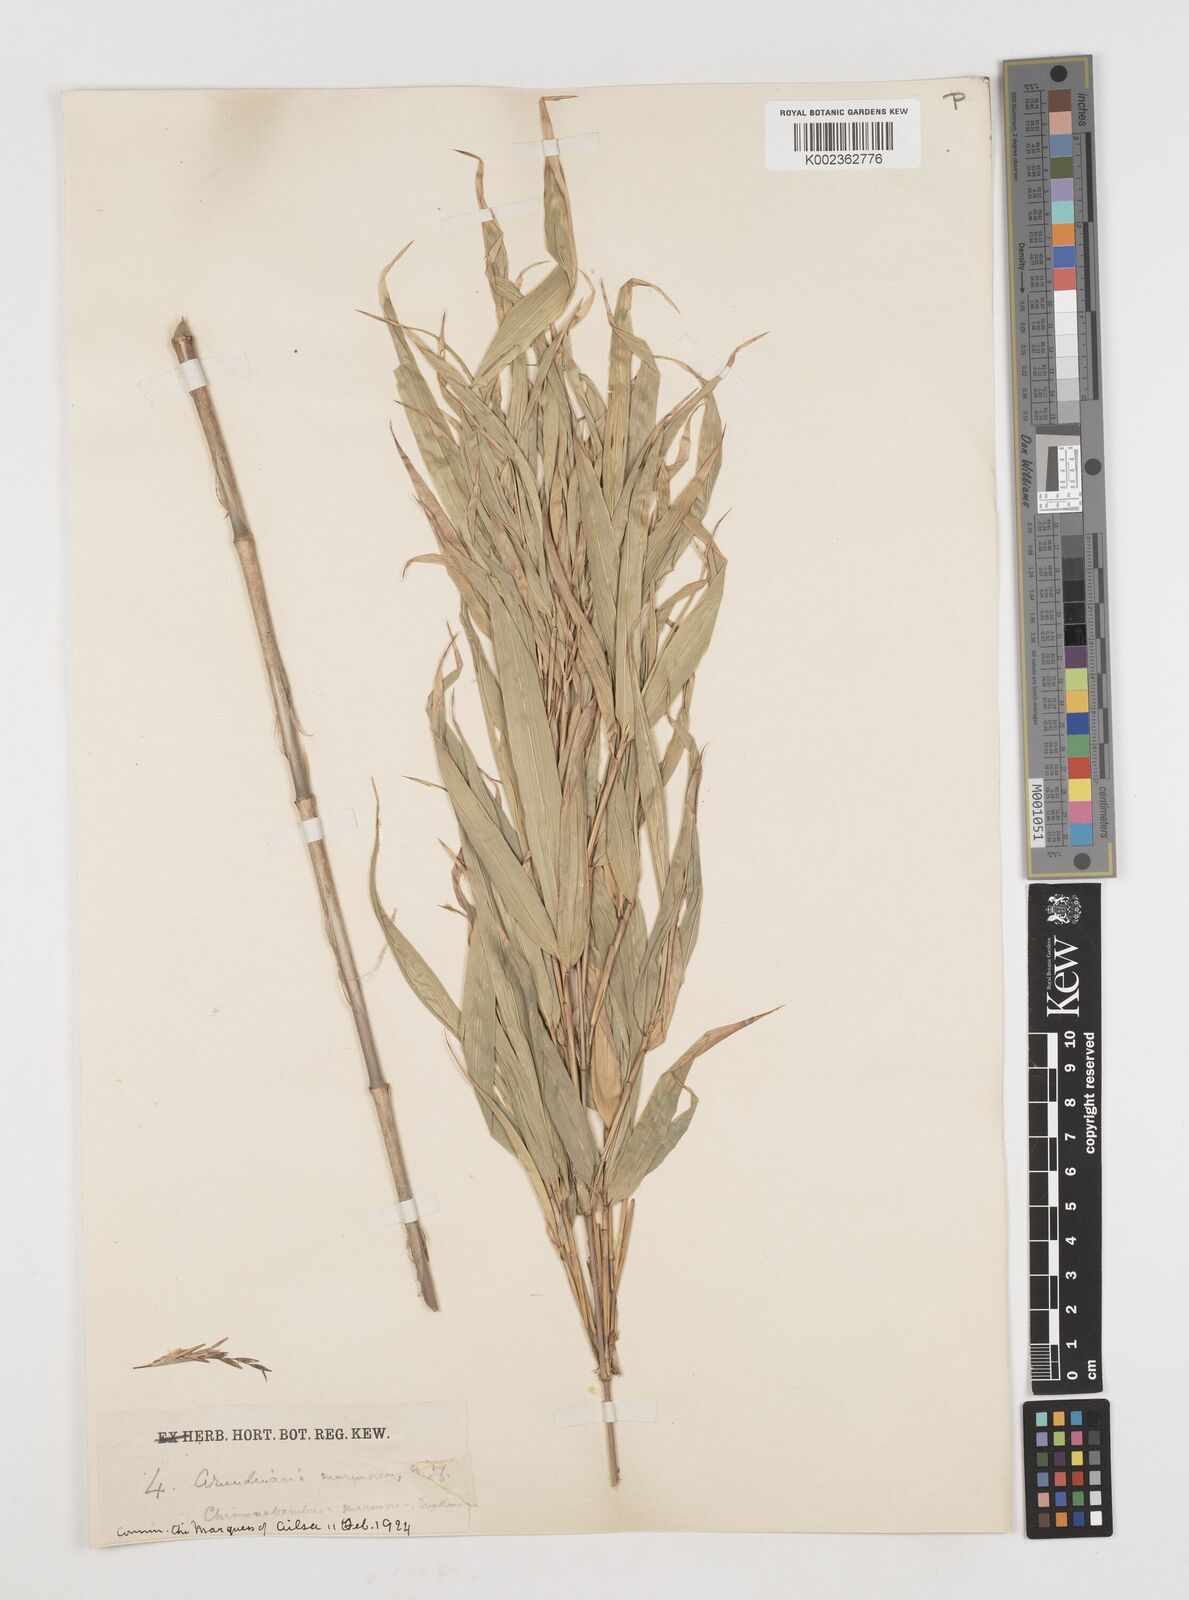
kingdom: Plantae
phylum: Tracheophyta
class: Liliopsida
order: Poales
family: Poaceae
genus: Chimonobambusa
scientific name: Chimonobambusa marmorea
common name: Marbled bamboo
